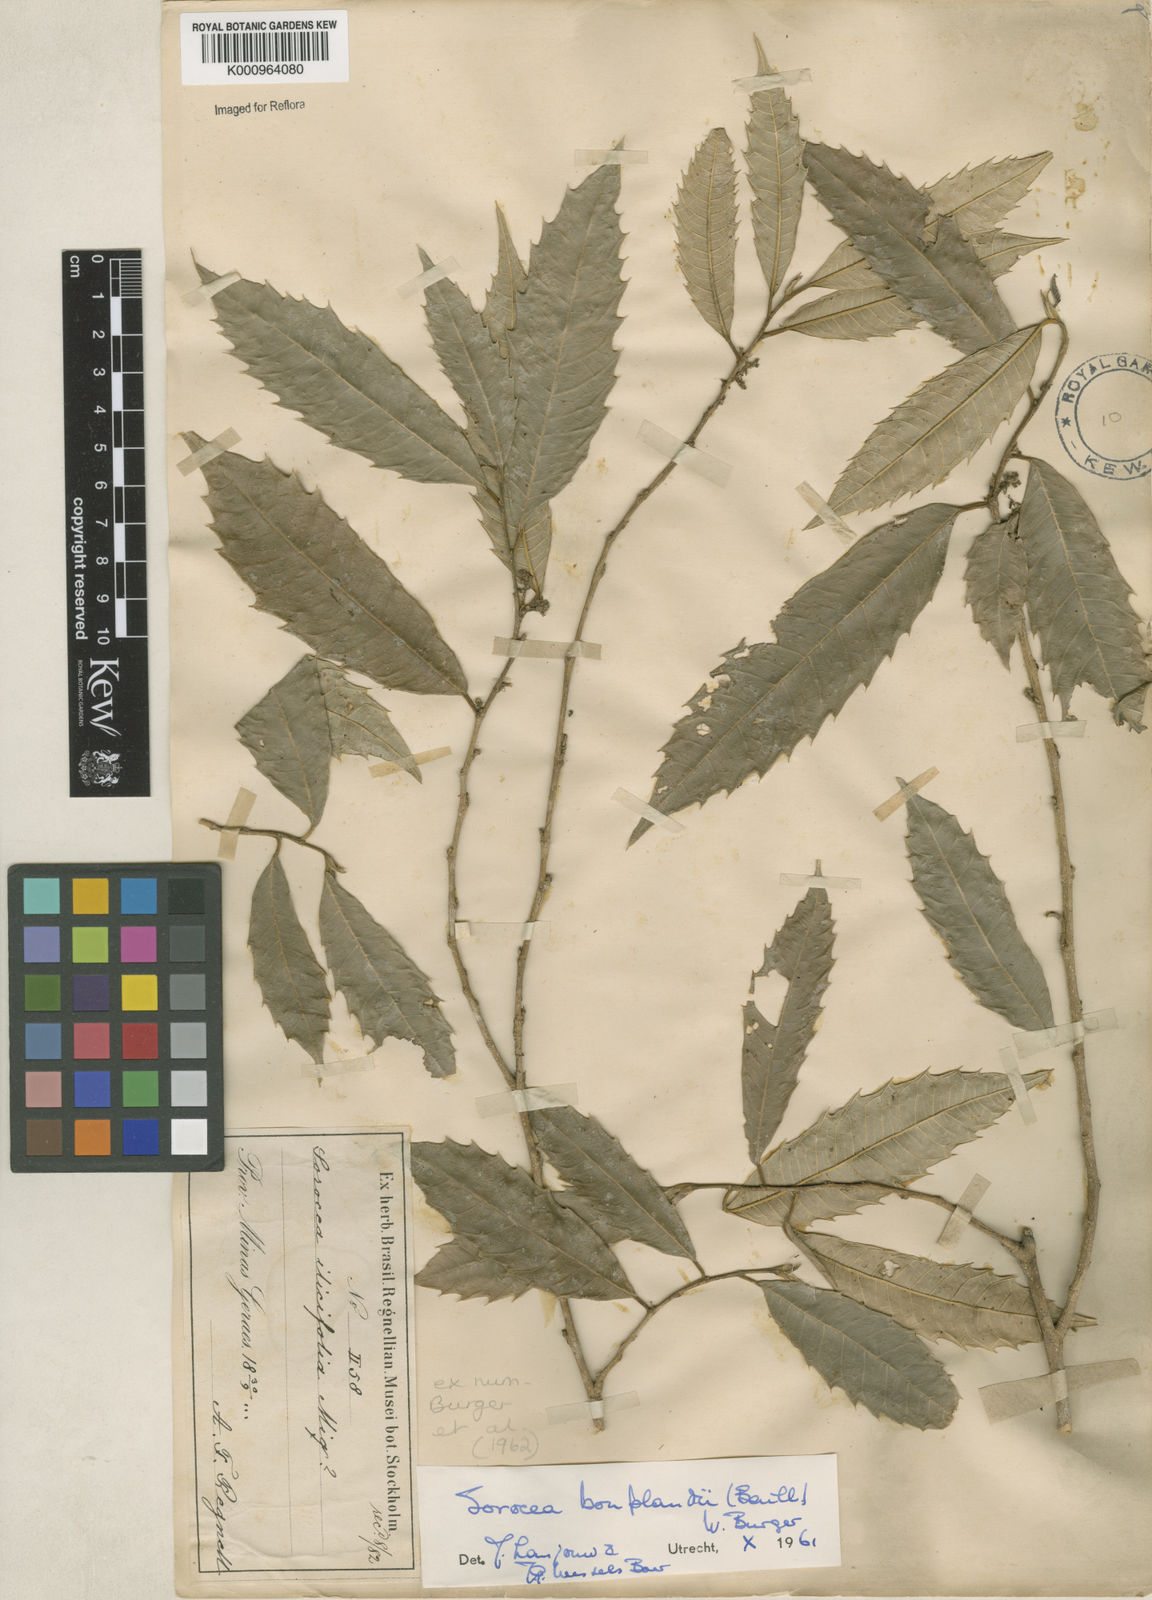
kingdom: Plantae
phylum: Tracheophyta
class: Magnoliopsida
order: Rosales
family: Moraceae
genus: Sorocea
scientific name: Sorocea
